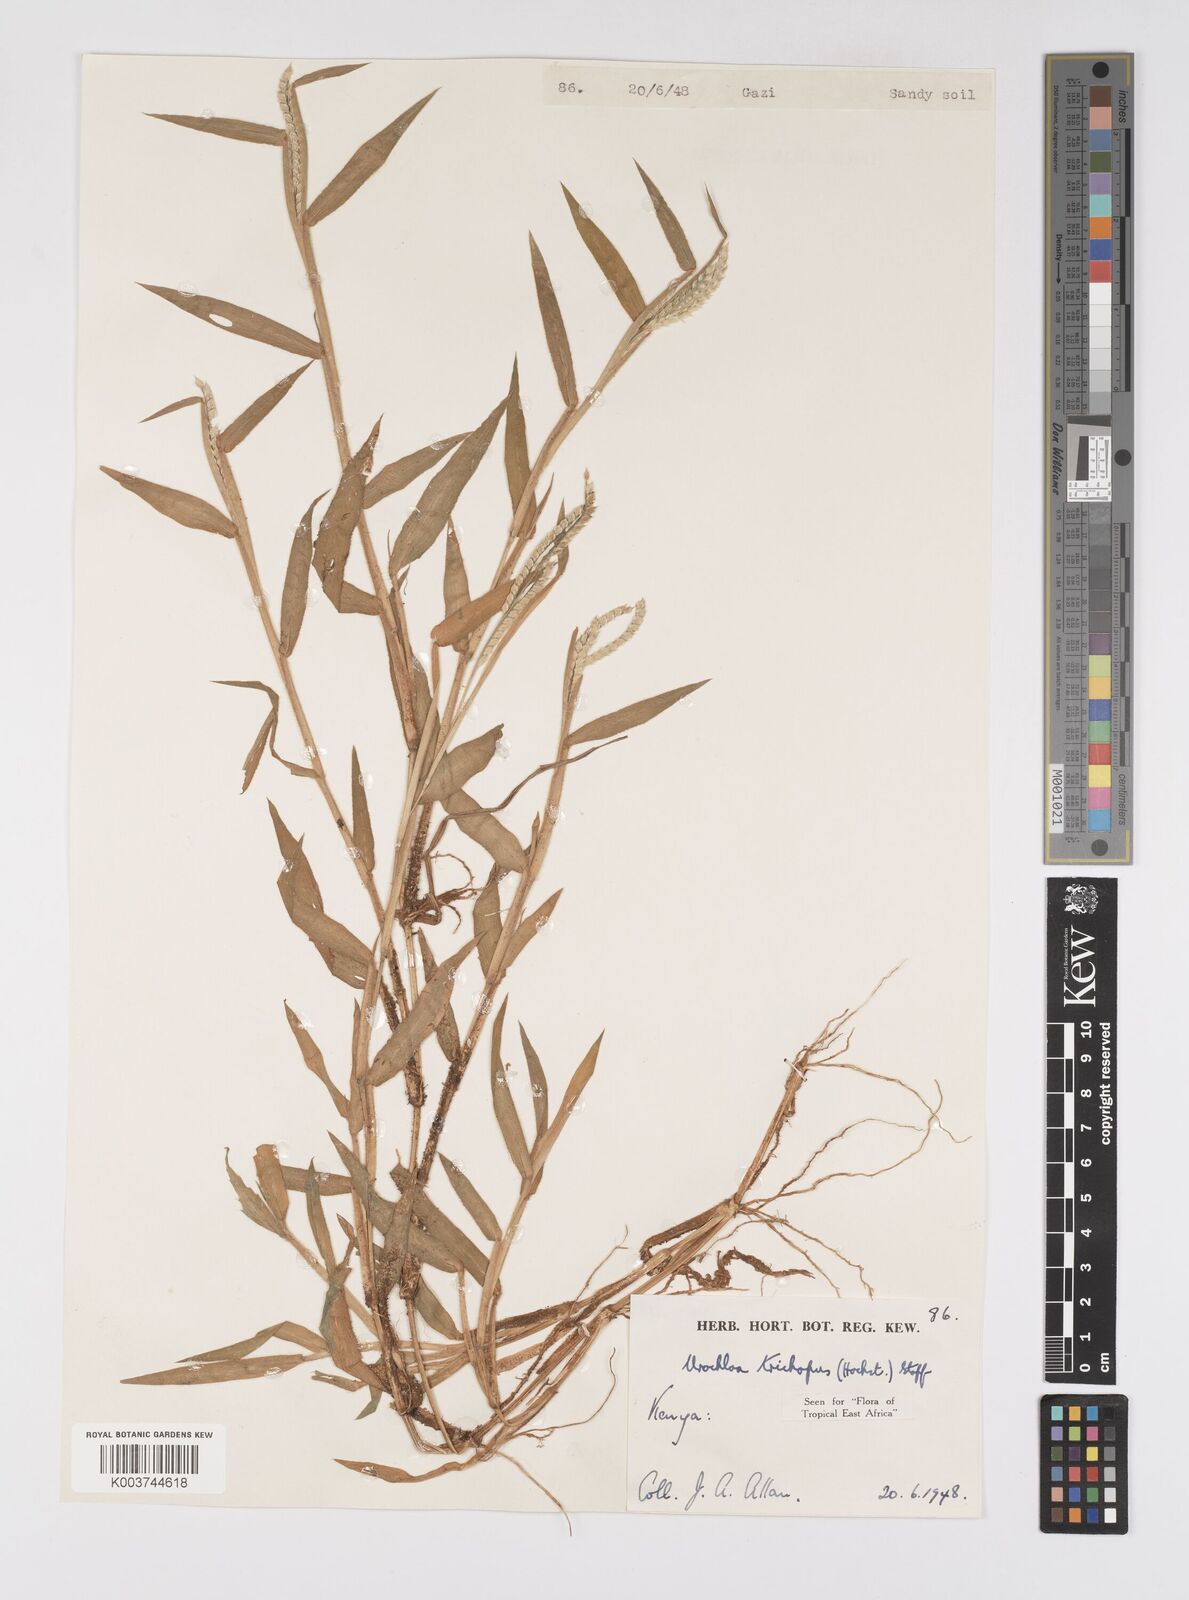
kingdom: Plantae
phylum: Tracheophyta
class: Liliopsida
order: Poales
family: Poaceae
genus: Urochloa
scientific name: Urochloa trichopus
